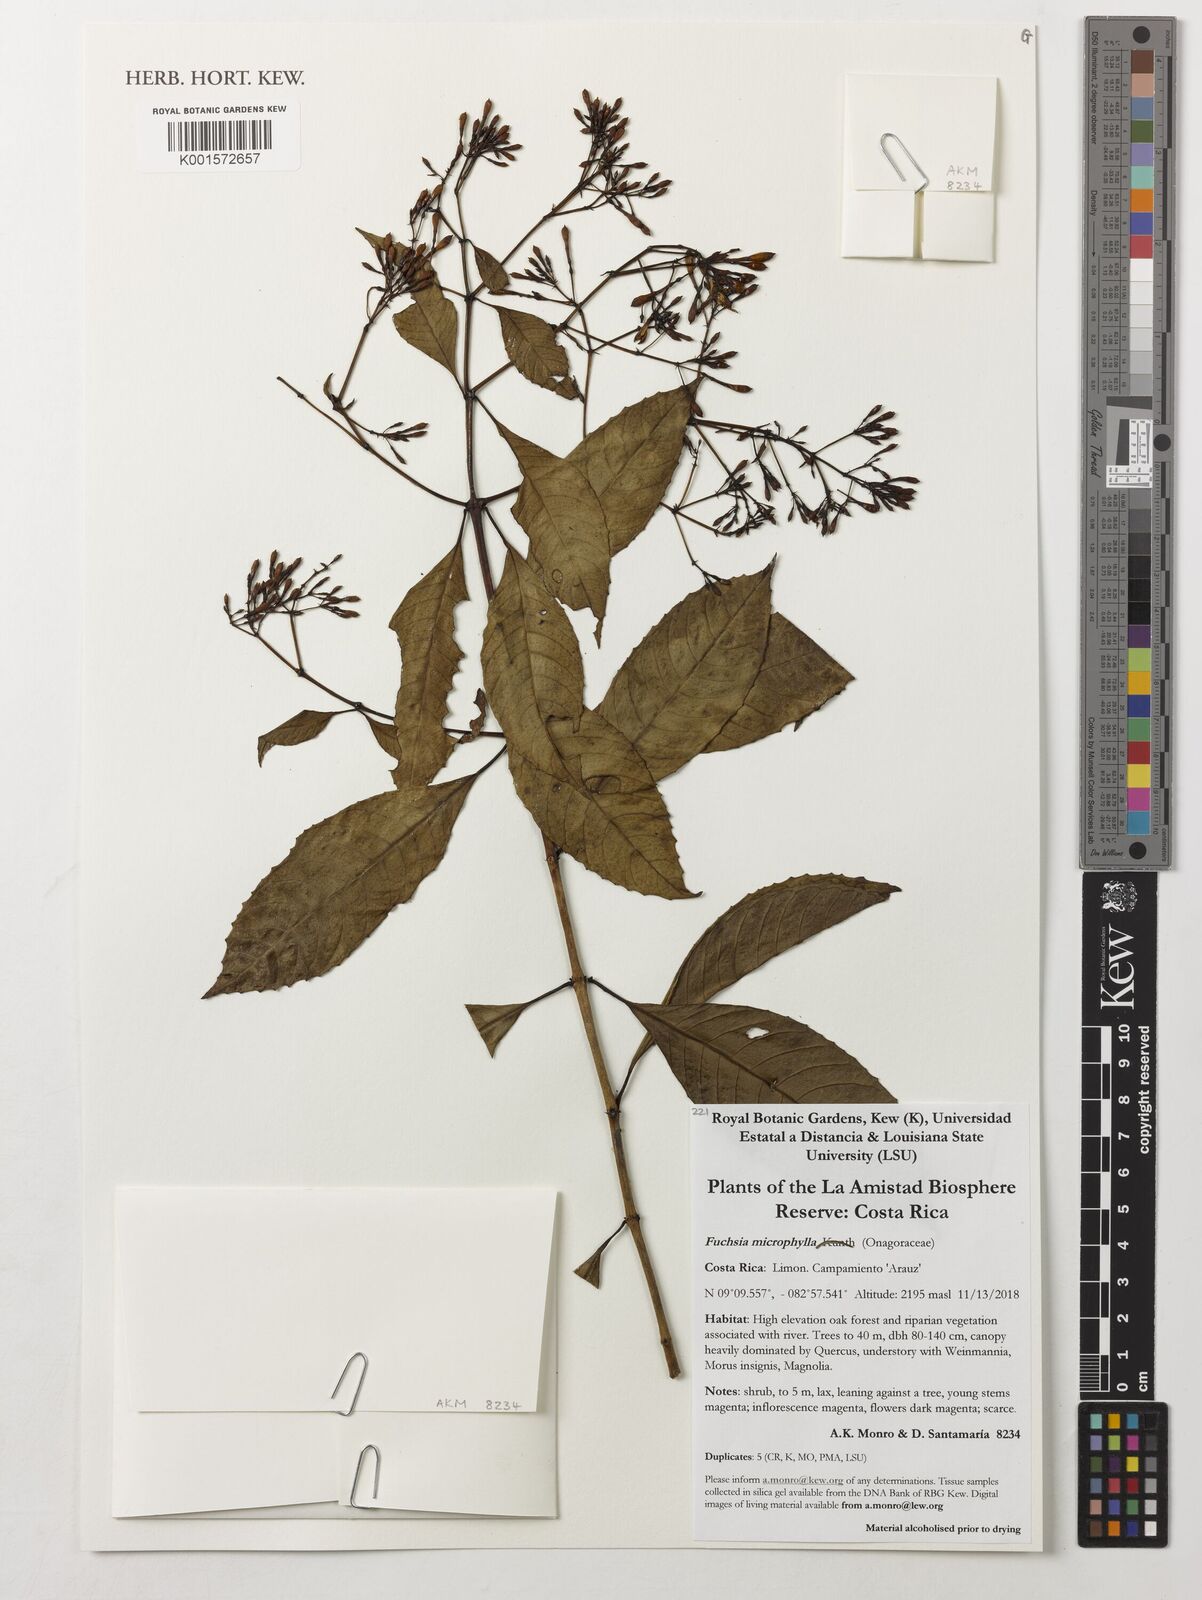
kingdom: Plantae
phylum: Tracheophyta
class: Magnoliopsida
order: Myrtales
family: Onagraceae
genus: Fuchsia
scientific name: Fuchsia microphylla
